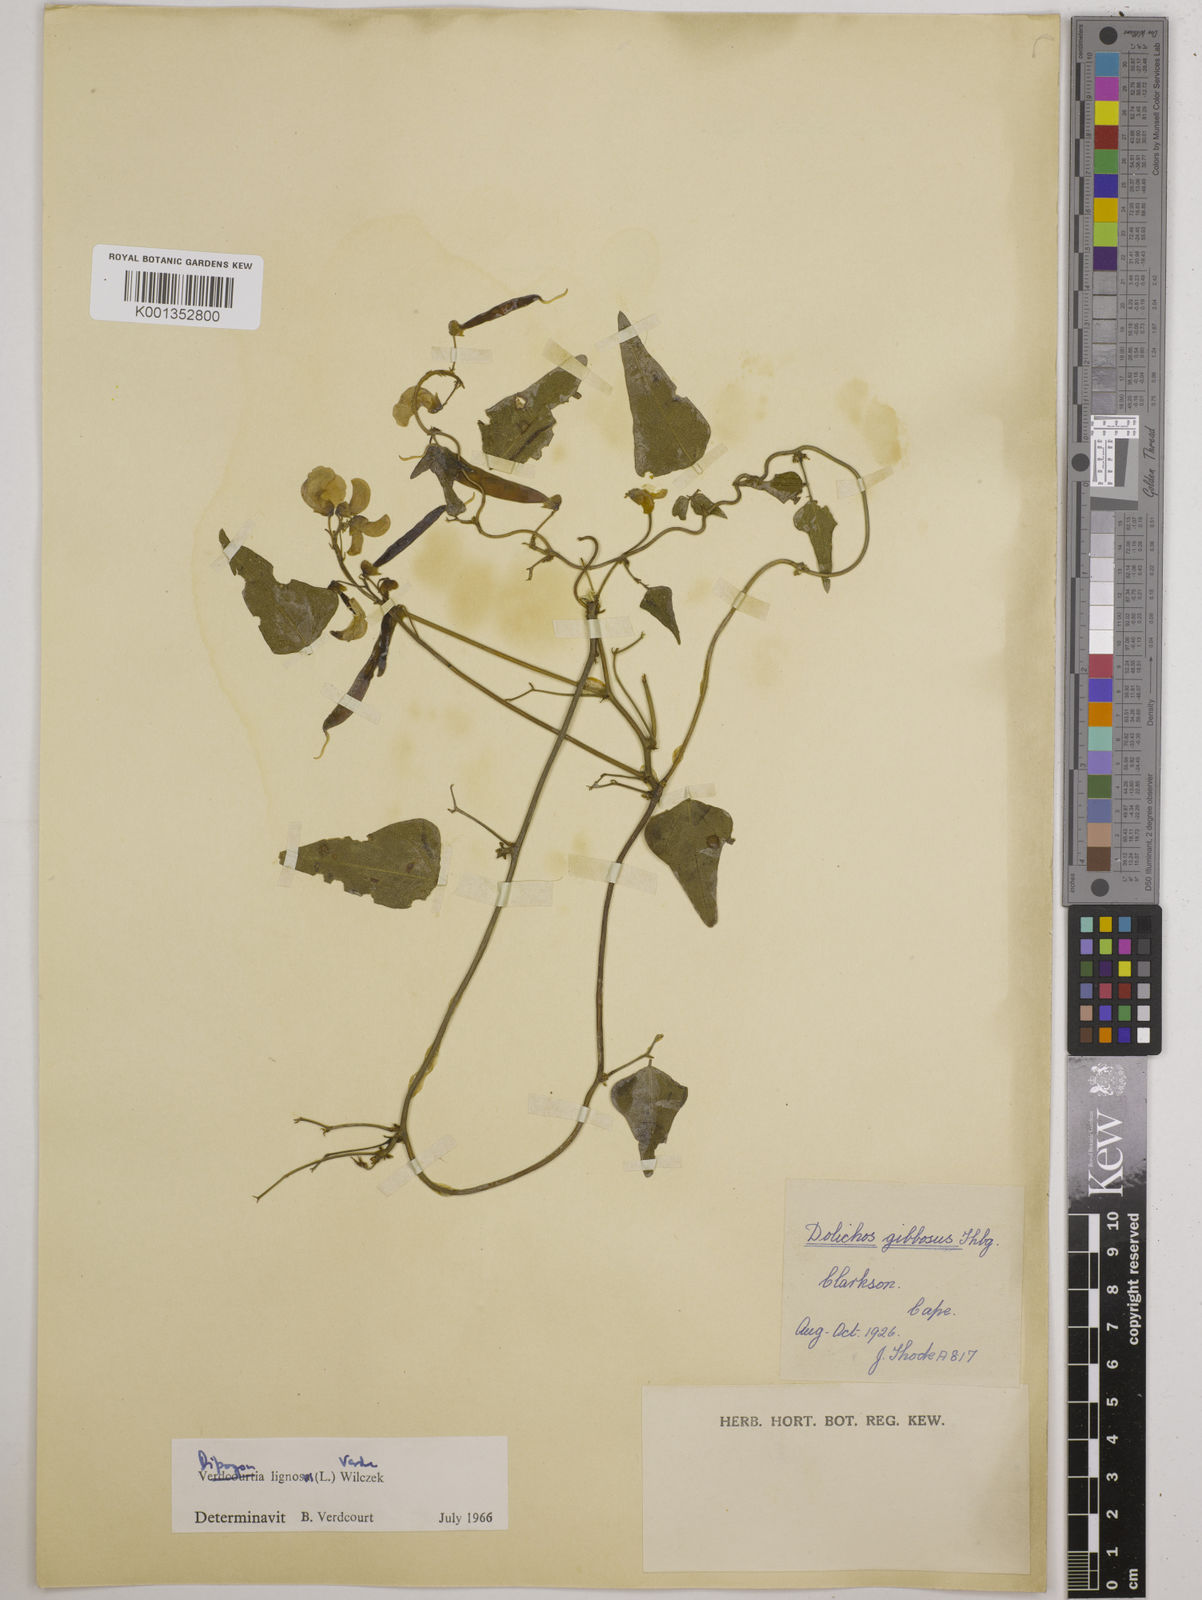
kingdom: Plantae
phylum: Tracheophyta
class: Magnoliopsida
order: Fabales
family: Fabaceae
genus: Dipogon
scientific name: Dipogon lignosus
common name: Okie bean
